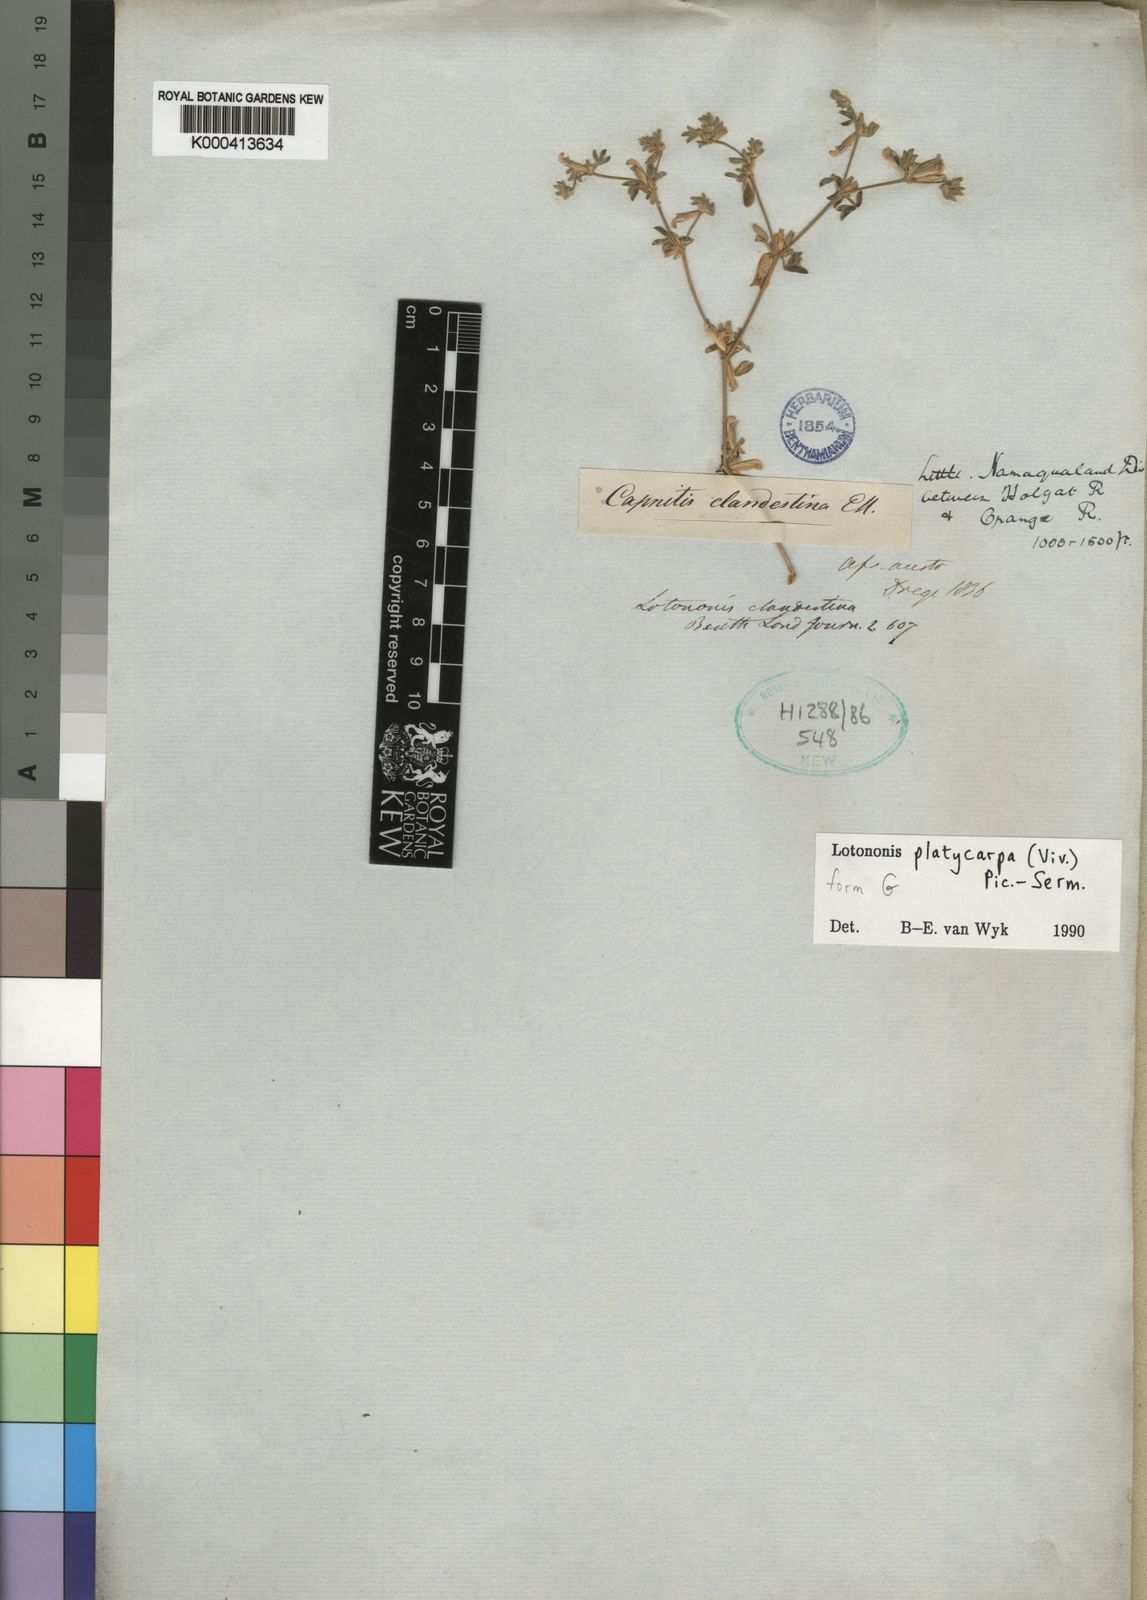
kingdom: Plantae
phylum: Tracheophyta
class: Magnoliopsida
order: Fabales
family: Fabaceae
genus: Leobordea
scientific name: Leobordea platycarpa
